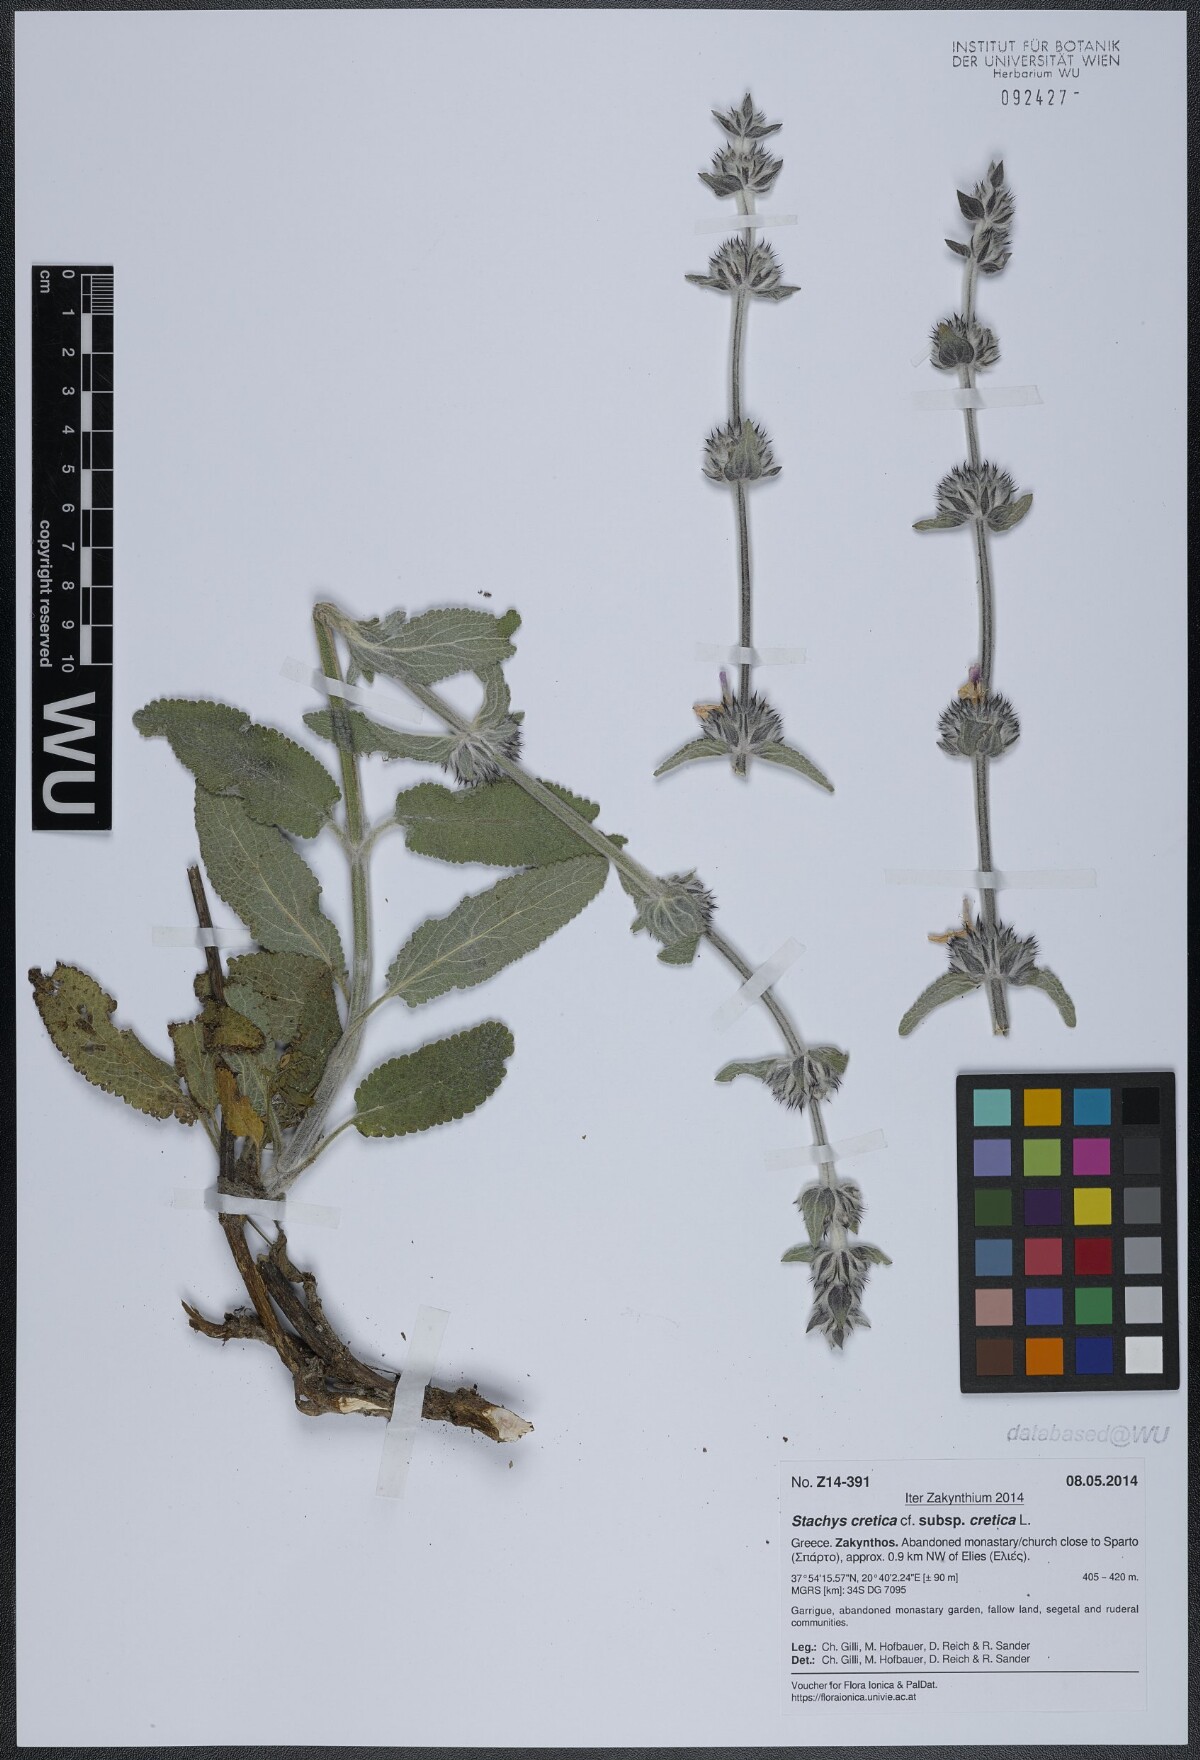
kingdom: Plantae
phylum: Tracheophyta
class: Magnoliopsida
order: Lamiales
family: Lamiaceae
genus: Stachys
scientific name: Stachys cretica
